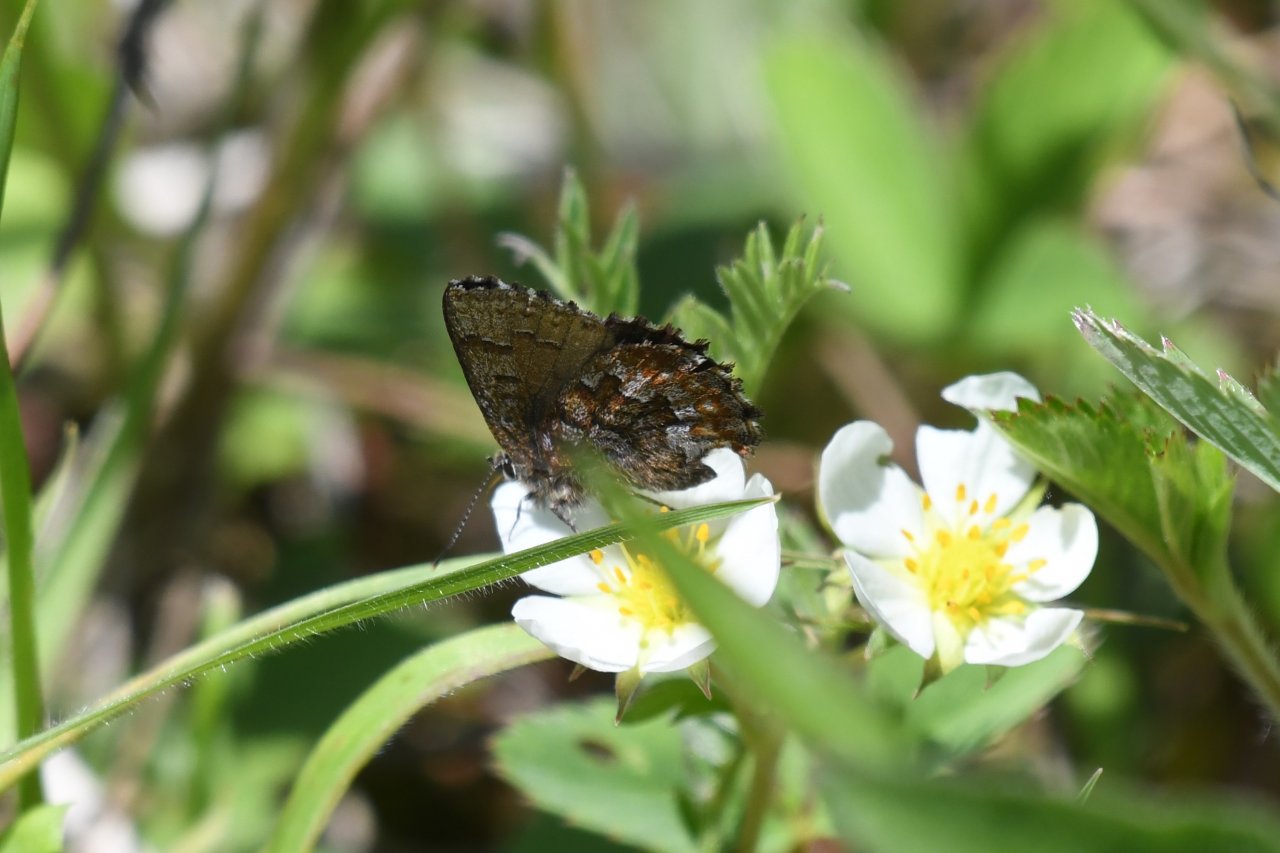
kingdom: Animalia
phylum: Arthropoda
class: Insecta
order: Lepidoptera
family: Lycaenidae
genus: Incisalia
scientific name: Incisalia niphon
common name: Eastern Pine Elfin
